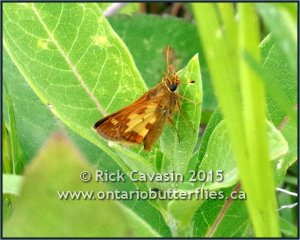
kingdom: Animalia
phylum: Arthropoda
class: Insecta
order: Lepidoptera
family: Hesperiidae
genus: Polites
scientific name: Polites coras
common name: Peck's Skipper
